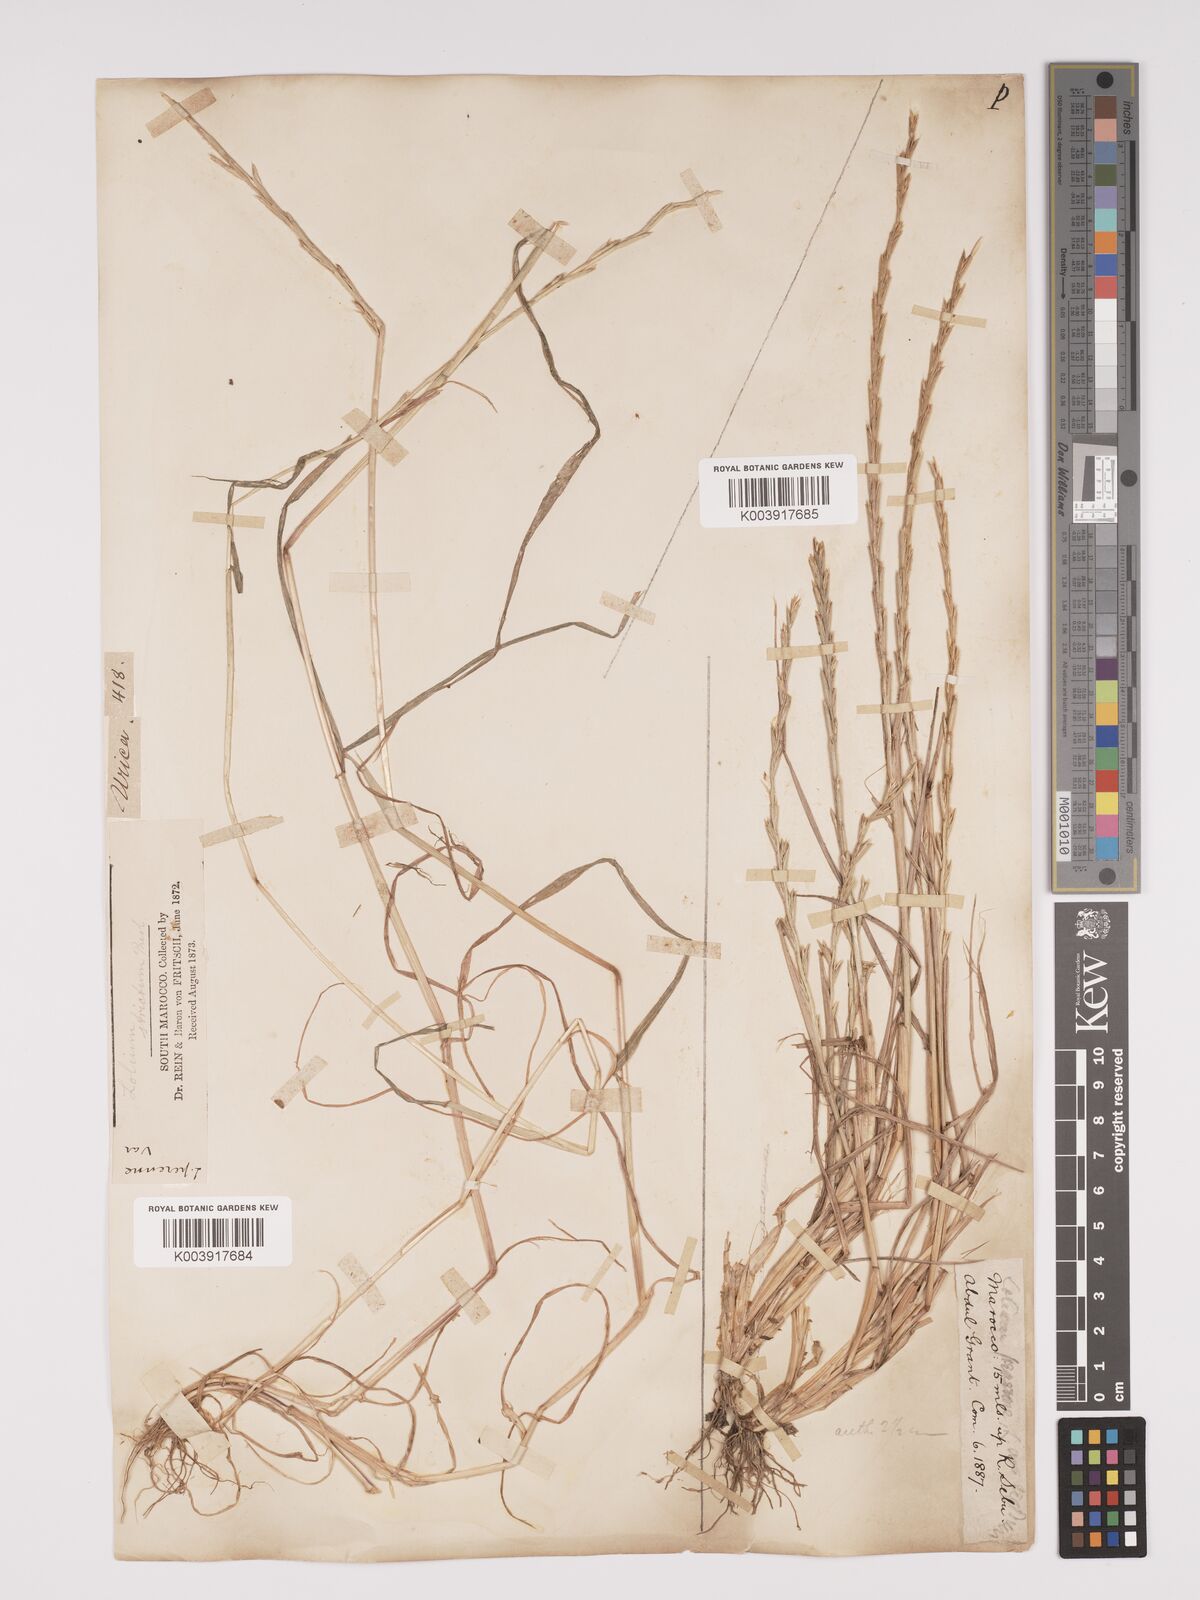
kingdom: Plantae
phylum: Tracheophyta
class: Liliopsida
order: Poales
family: Poaceae
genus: Lolium
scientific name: Lolium rigidum
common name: Wimmera ryegrass
